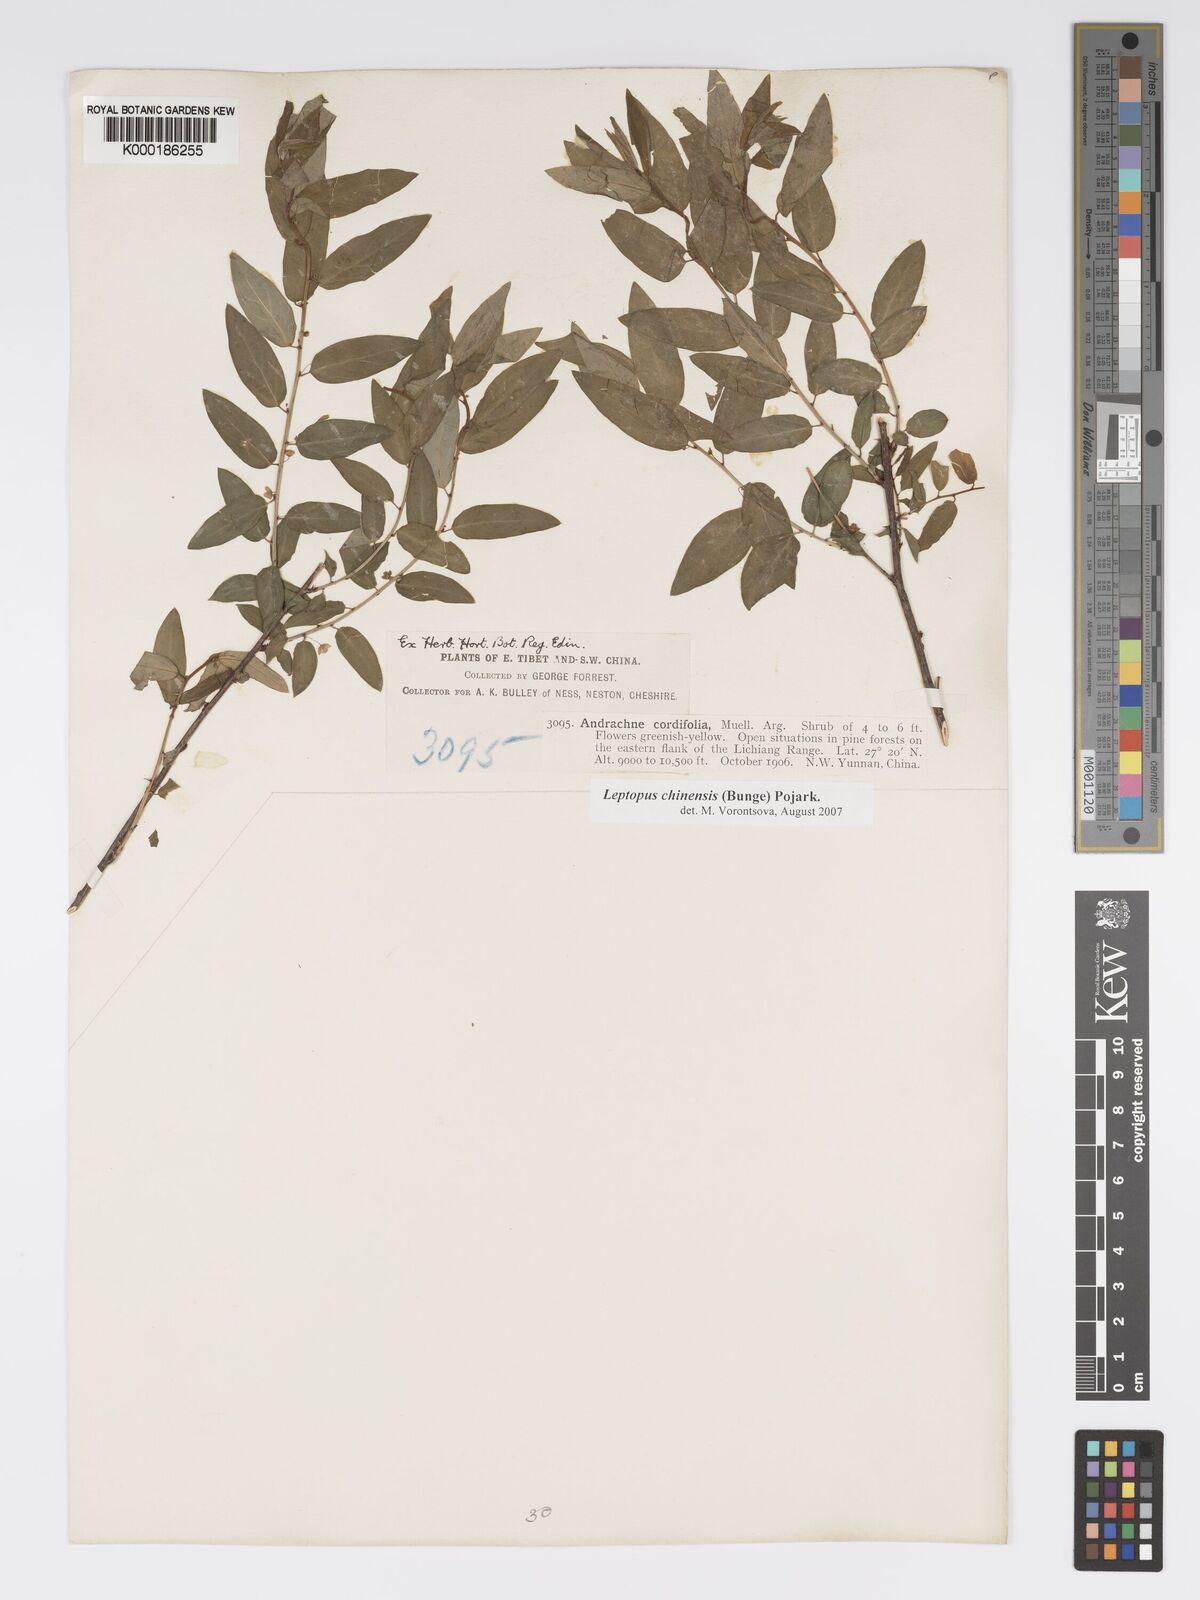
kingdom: Plantae
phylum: Tracheophyta
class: Magnoliopsida
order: Malpighiales
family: Phyllanthaceae
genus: Leptopus
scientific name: Leptopus cordifolius
